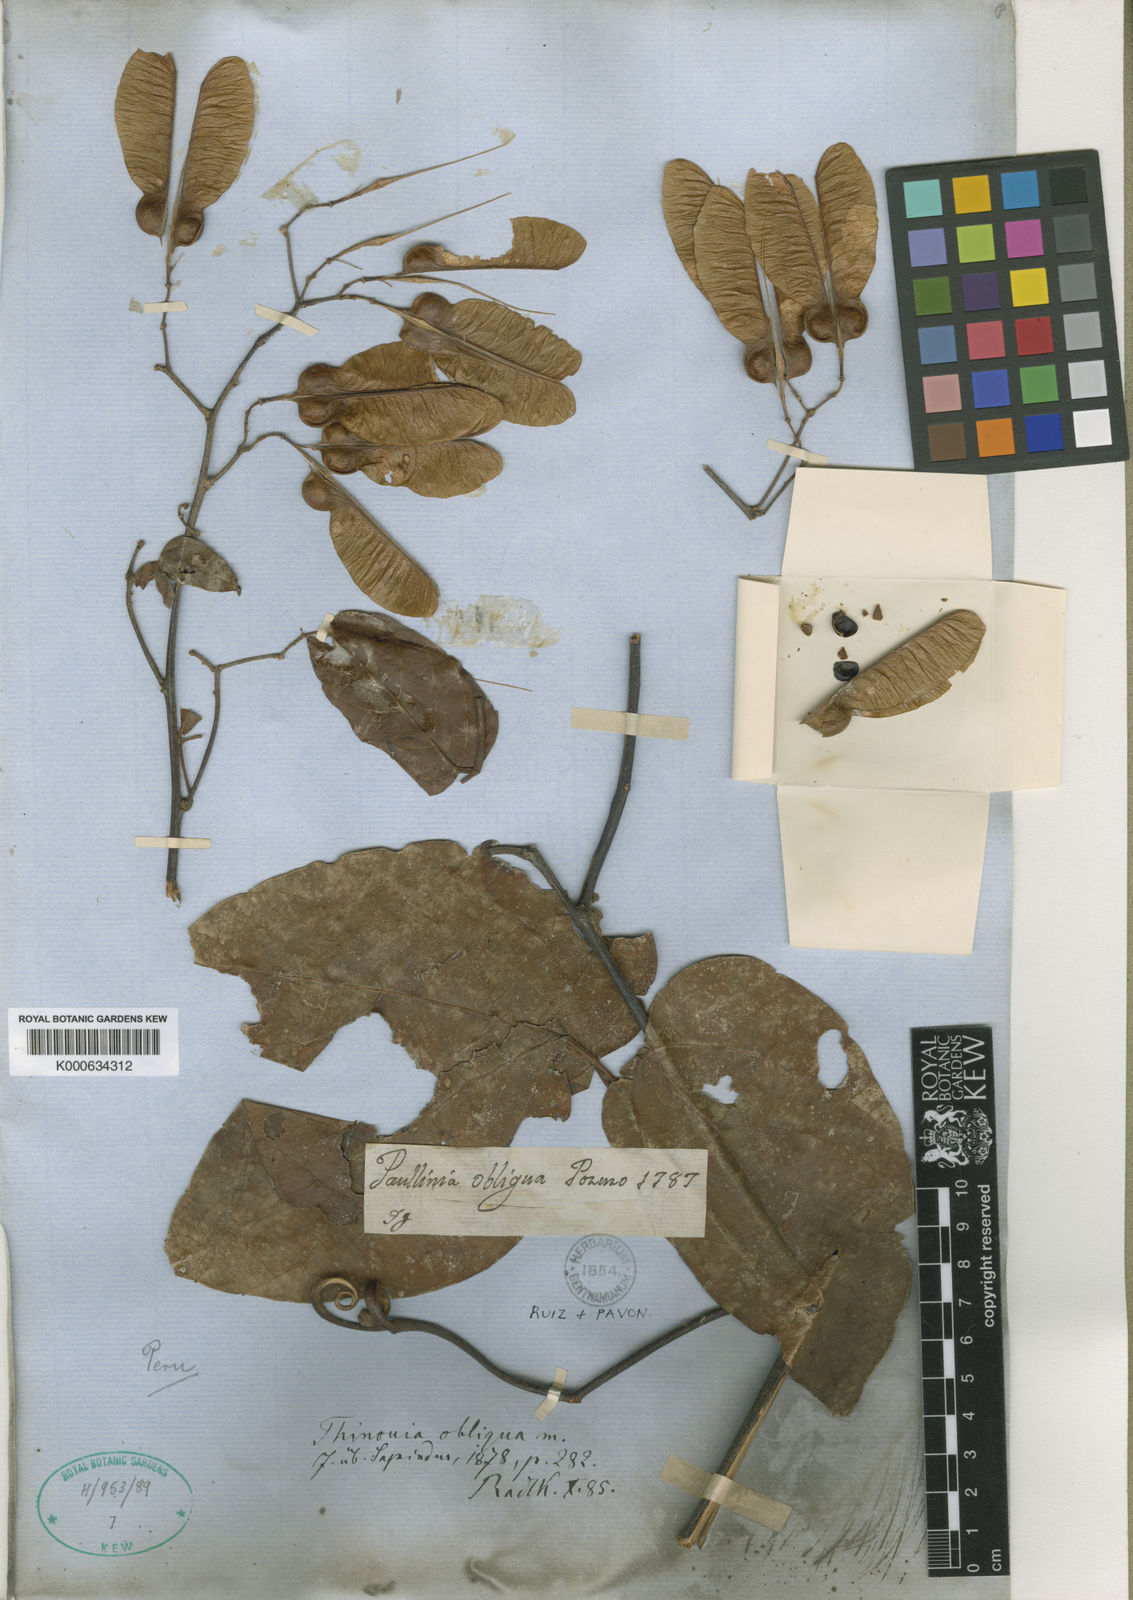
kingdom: Plantae
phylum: Tracheophyta
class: Magnoliopsida
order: Sapindales
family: Sapindaceae
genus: Thinouia
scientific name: Thinouia obliqua
